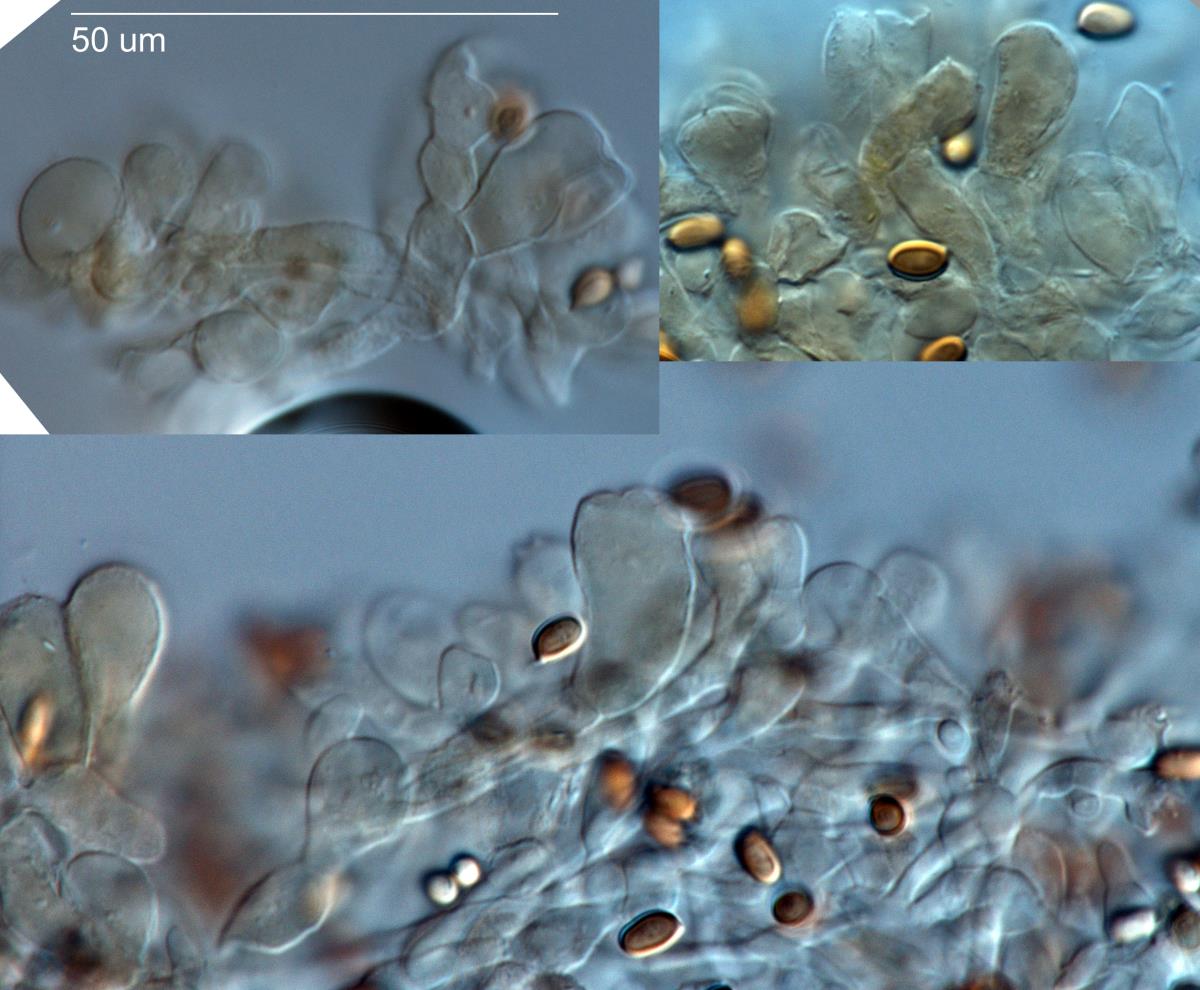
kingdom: Fungi
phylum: Basidiomycota
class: Agaricomycetes
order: Agaricales
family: Agaricaceae
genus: Agaricus
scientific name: Agaricus campbellensis
